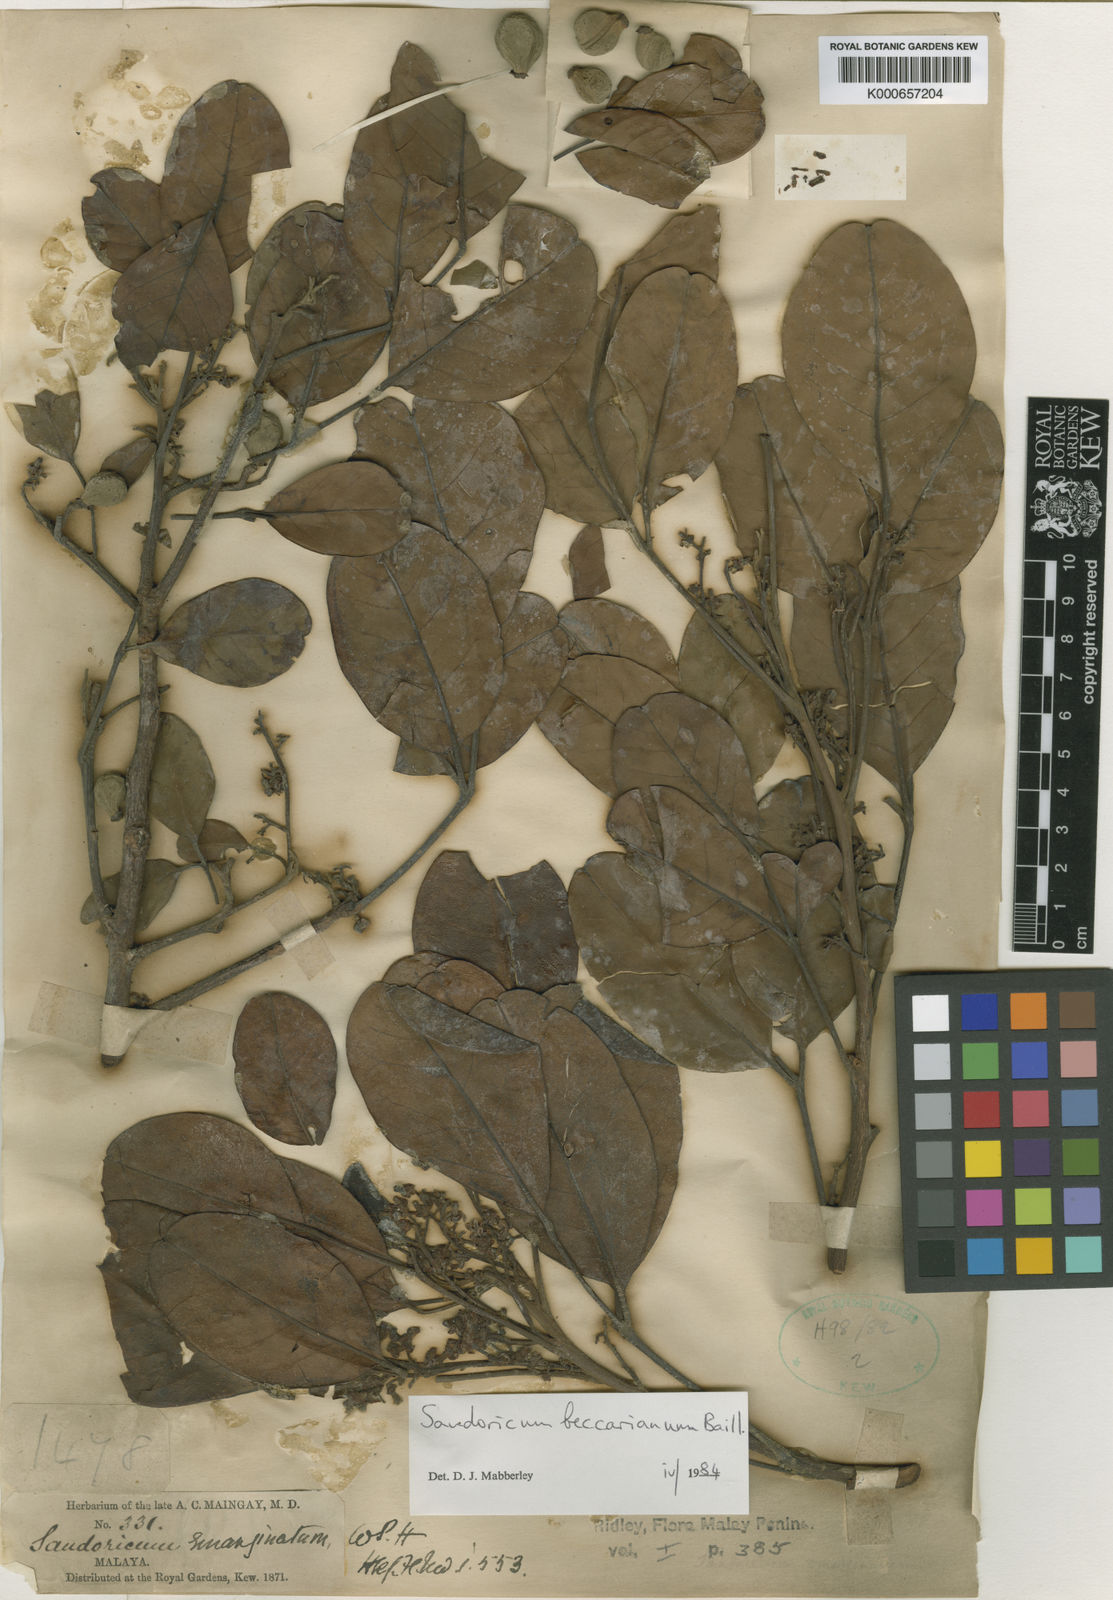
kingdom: Plantae
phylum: Tracheophyta
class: Magnoliopsida
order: Sapindales
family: Meliaceae
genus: Sandoricum
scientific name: Sandoricum beccarianum
